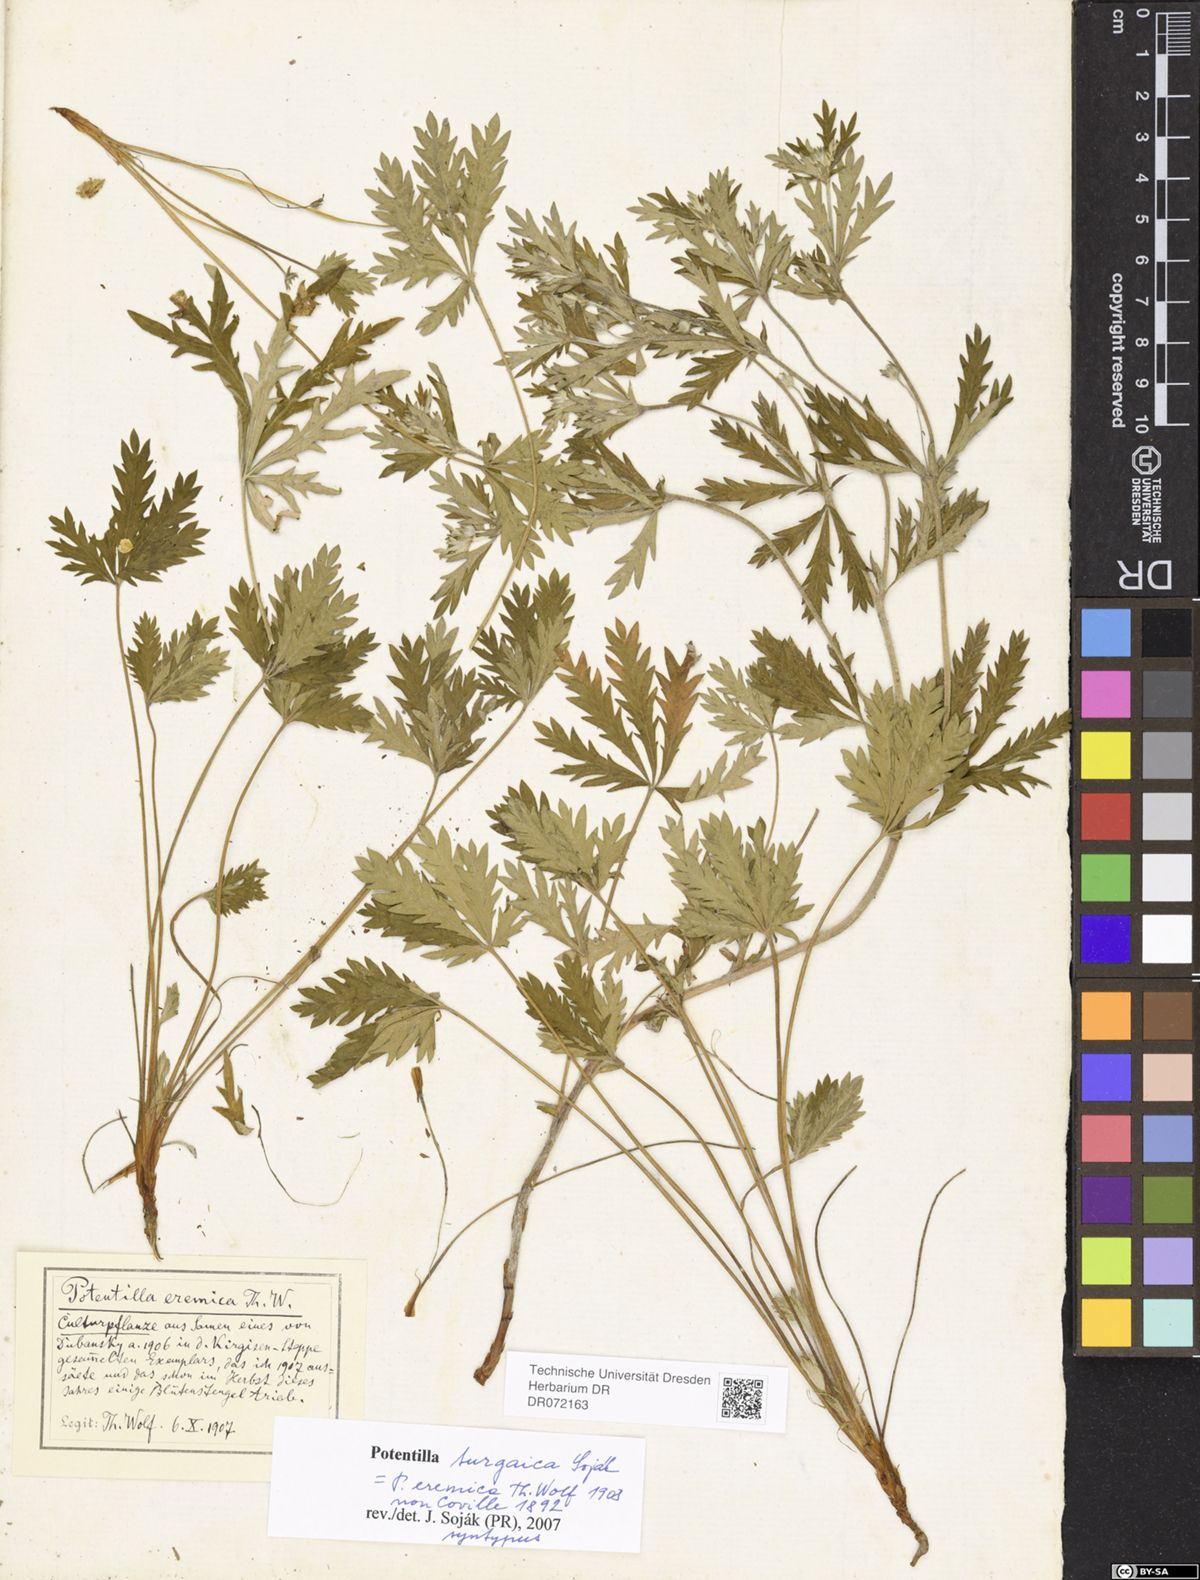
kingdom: Plantae
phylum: Tracheophyta
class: Magnoliopsida
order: Rosales
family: Rosaceae
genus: Potentilla
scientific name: Potentilla turgaica
